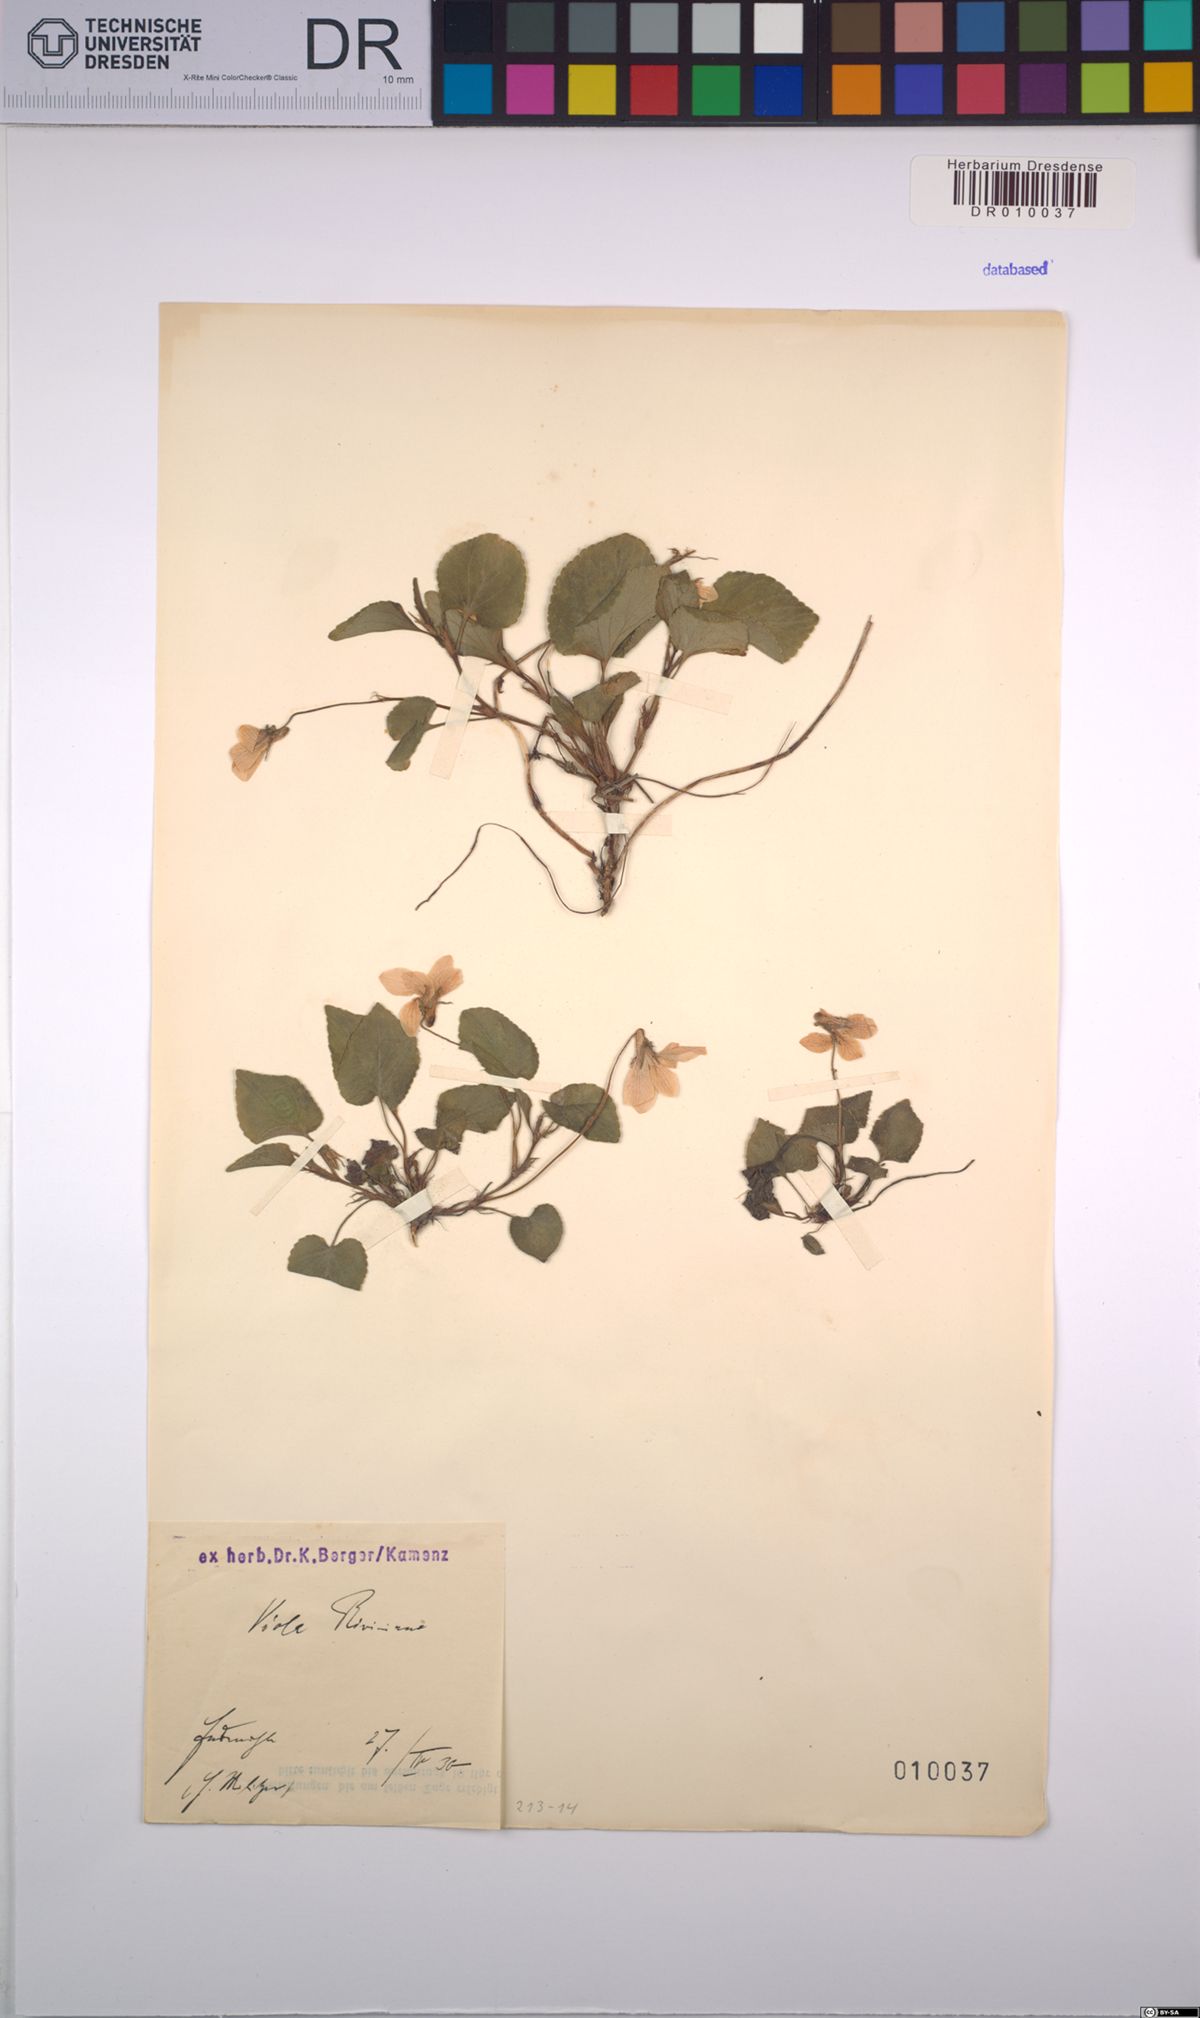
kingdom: Plantae
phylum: Tracheophyta
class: Magnoliopsida
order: Malpighiales
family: Violaceae
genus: Viola
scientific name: Viola riviniana
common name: Common dog-violet
